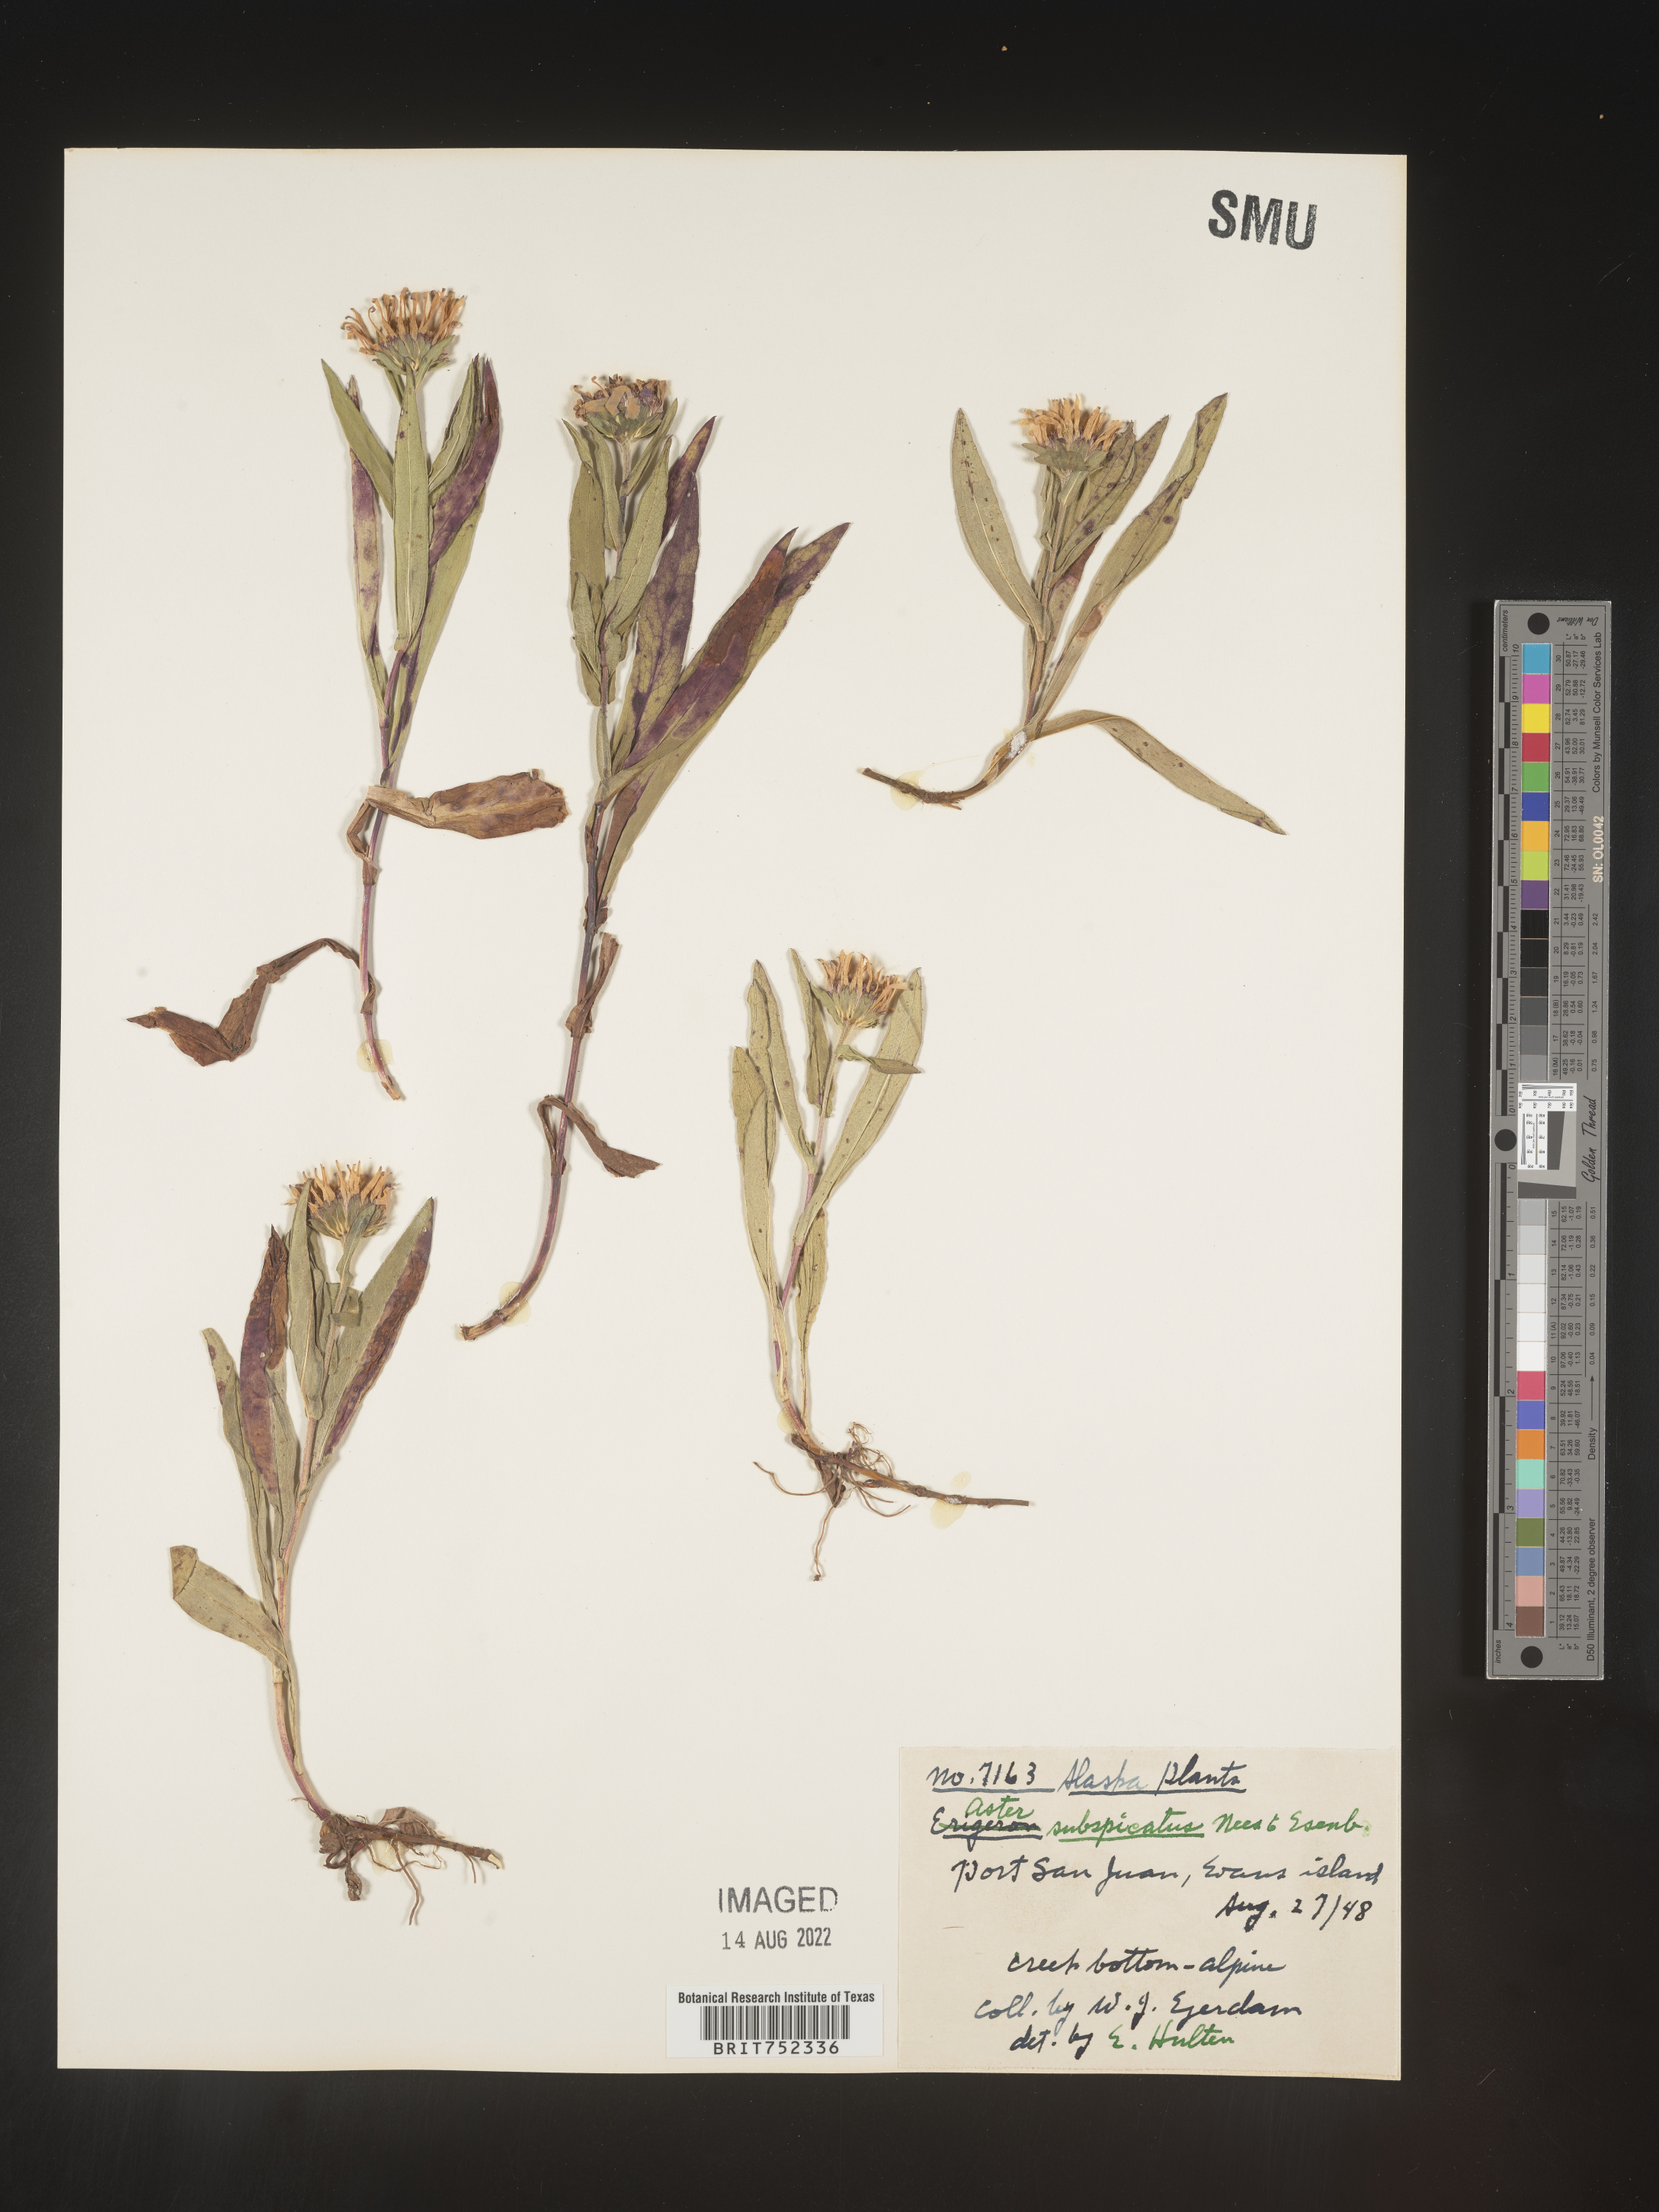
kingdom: Plantae
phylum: Tracheophyta
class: Magnoliopsida
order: Asterales
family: Asteraceae
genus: Symphyotrichum
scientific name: Symphyotrichum subspicatum
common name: Douglas' aster
